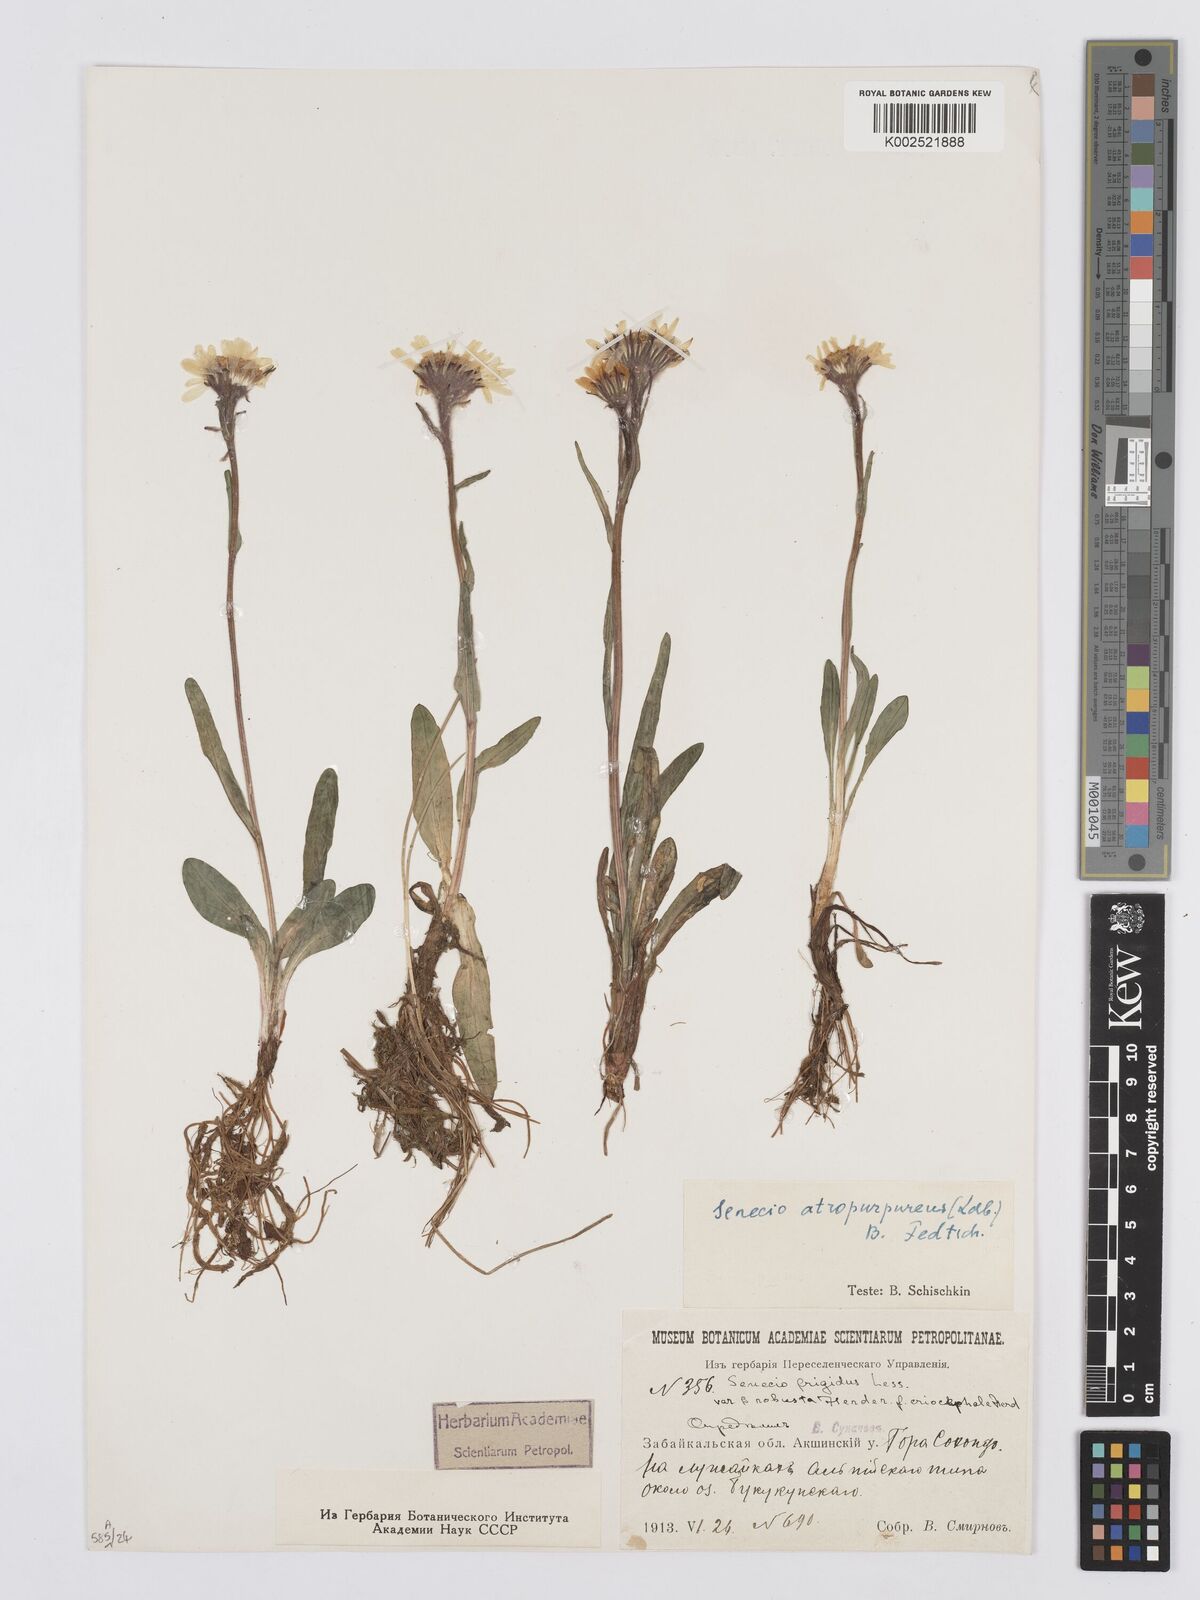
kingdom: Plantae
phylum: Tracheophyta
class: Magnoliopsida
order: Asterales
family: Asteraceae
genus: Tephroseris
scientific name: Tephroseris integrifolia
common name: Field fleawort
